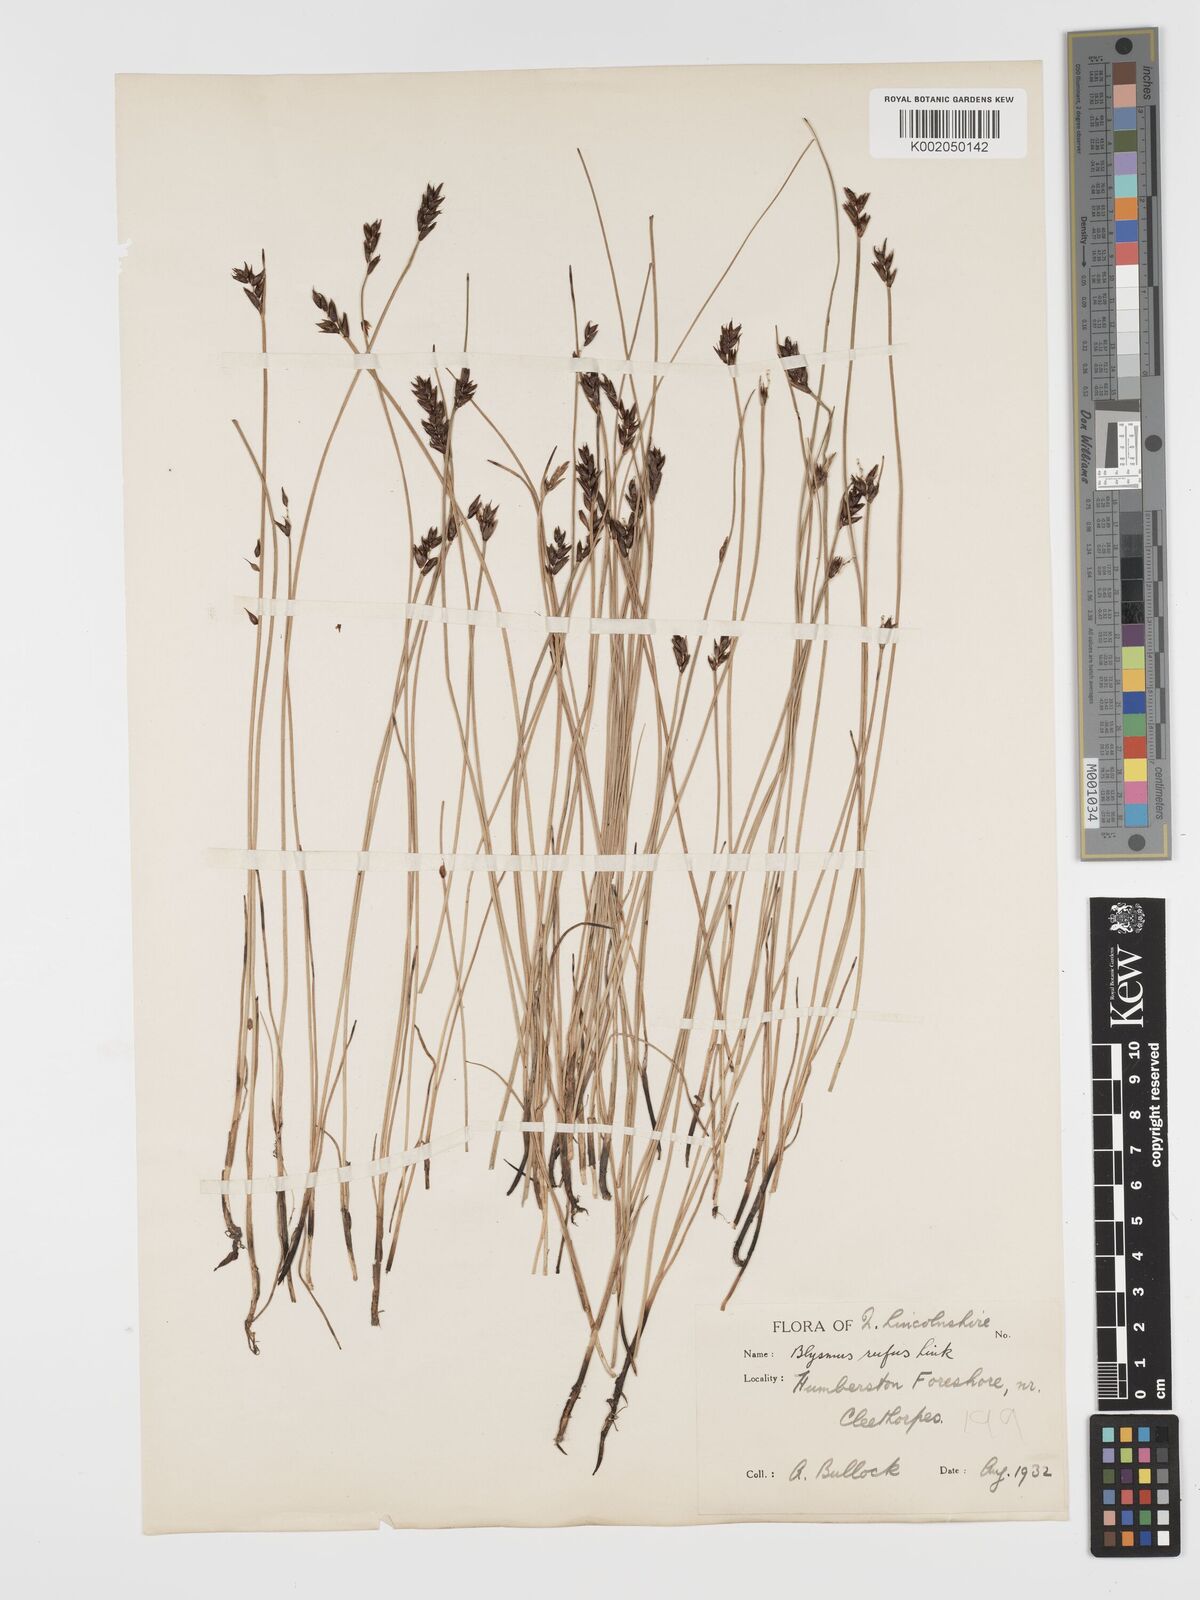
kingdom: Plantae
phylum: Tracheophyta
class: Liliopsida
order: Poales
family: Cyperaceae
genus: Blysmus
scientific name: Blysmus rufus
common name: Saltmarsh flat-sedge
